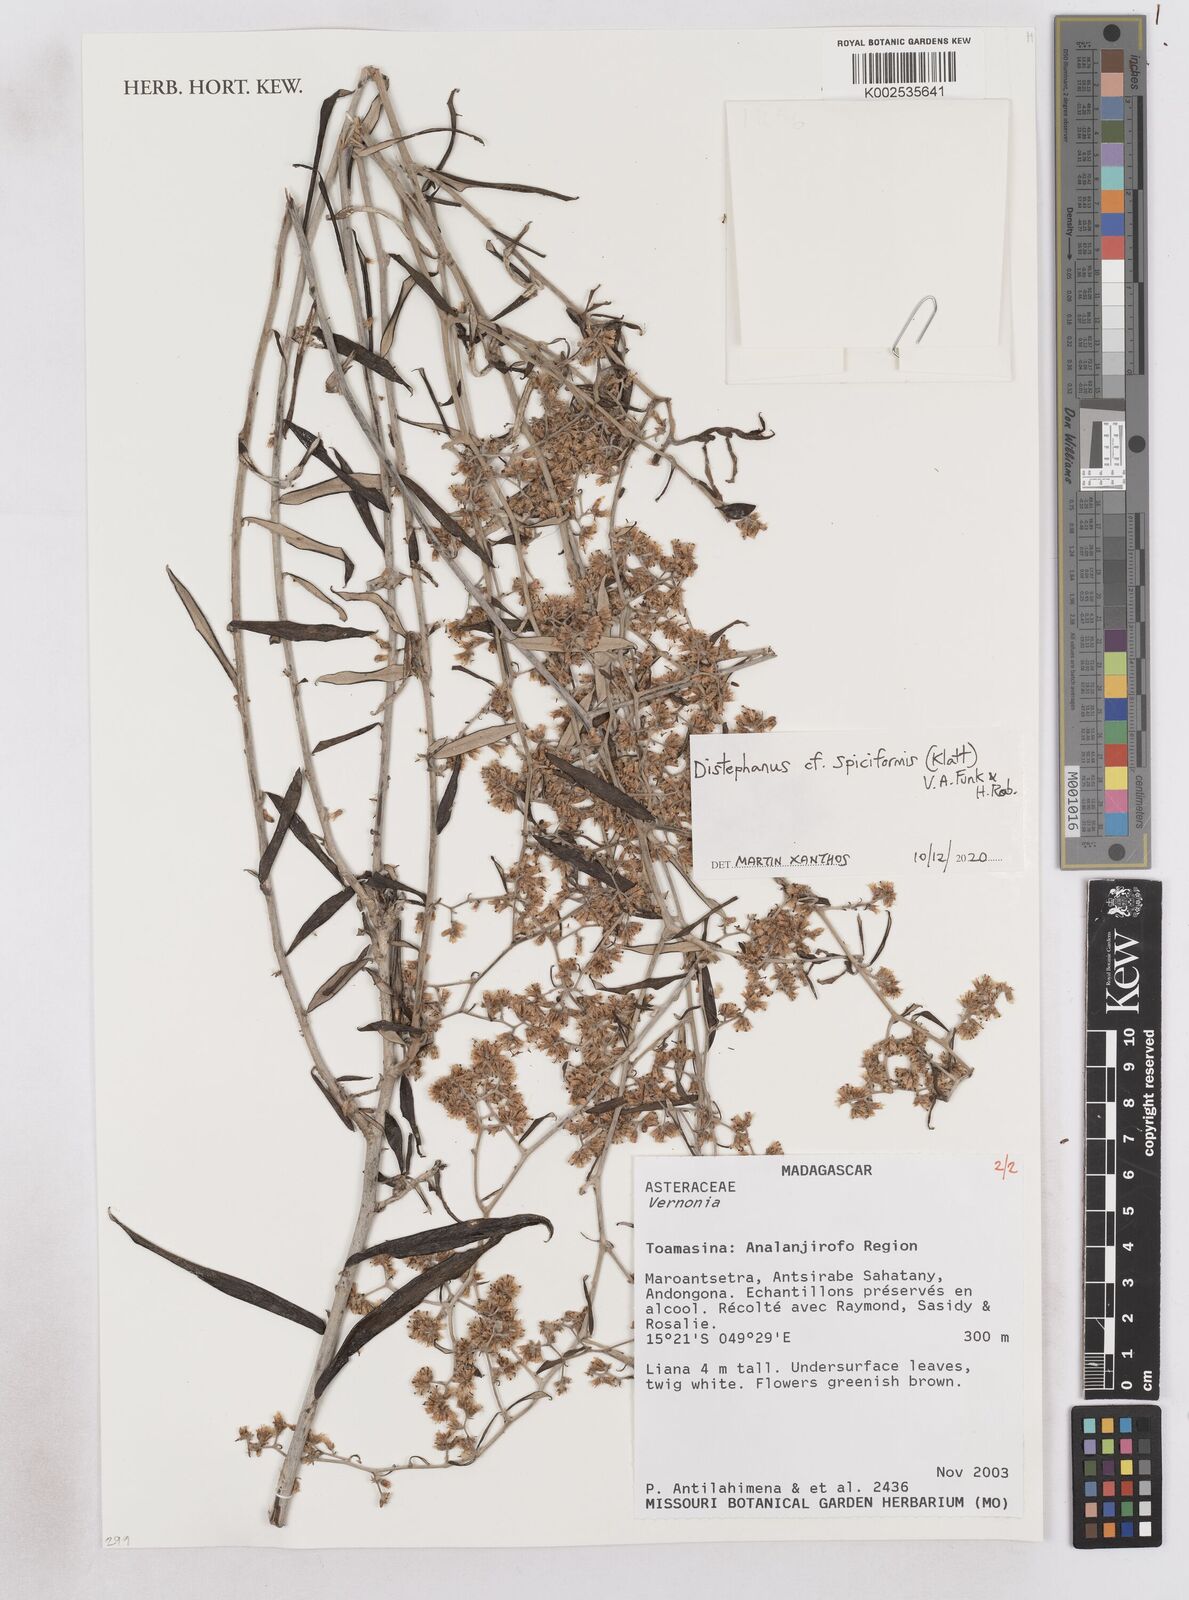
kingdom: Plantae
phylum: Tracheophyta
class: Magnoliopsida
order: Asterales
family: Asteraceae
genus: Distephanus
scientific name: Distephanus spiciformis
